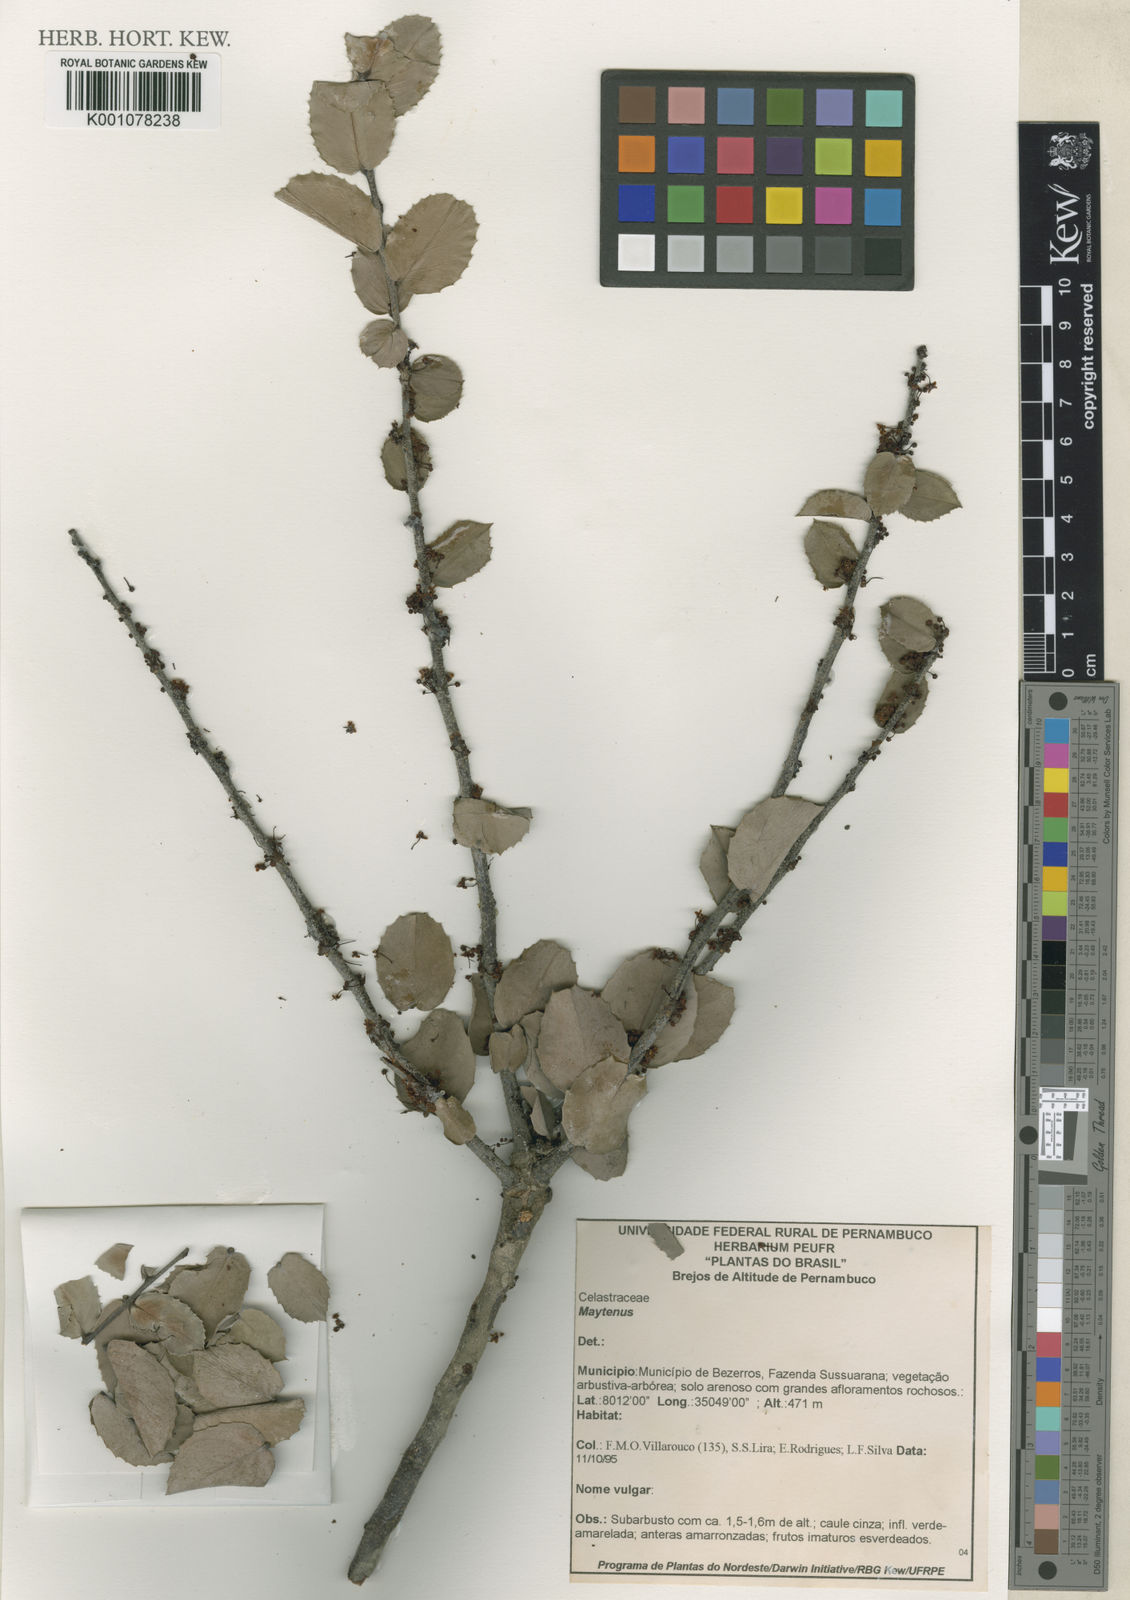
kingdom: Plantae
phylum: Tracheophyta
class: Magnoliopsida
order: Celastrales
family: Celastraceae
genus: Maytenus
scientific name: Maytenus
